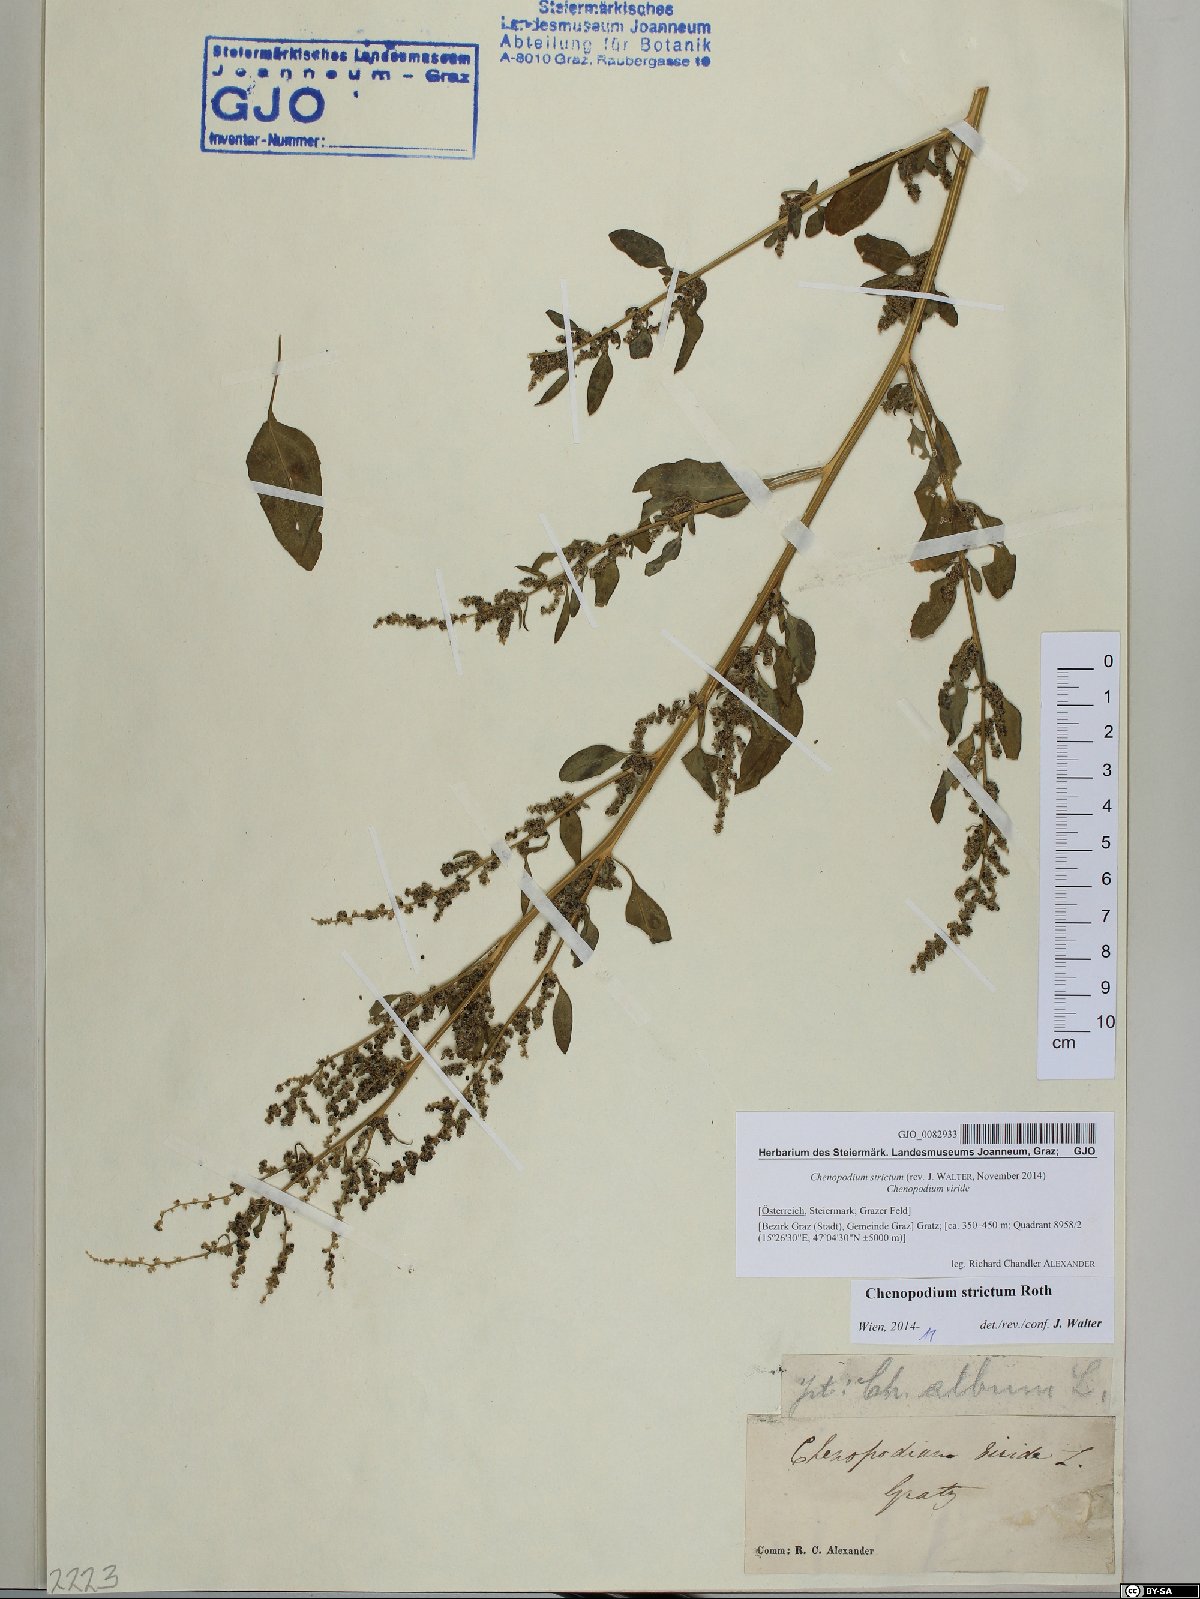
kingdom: Plantae
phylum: Tracheophyta
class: Magnoliopsida
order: Caryophyllales
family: Amaranthaceae
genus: Chenopodium
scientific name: Chenopodium album
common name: Fat-hen
